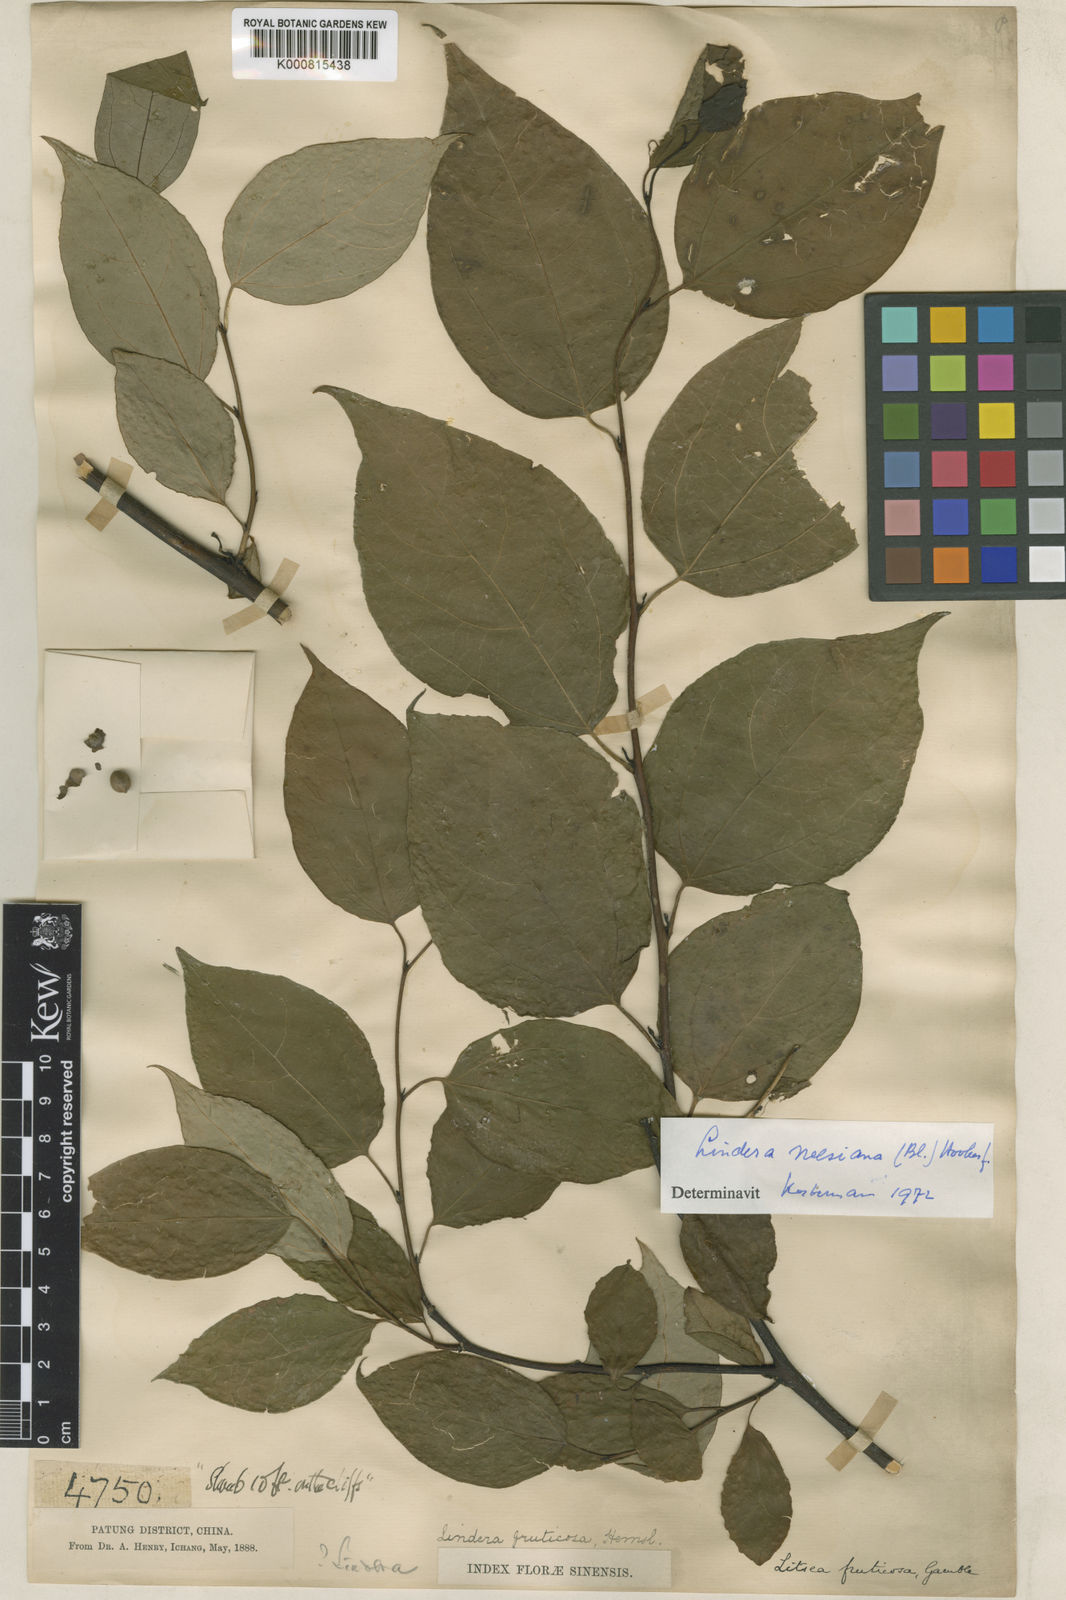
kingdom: Plantae
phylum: Tracheophyta
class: Magnoliopsida
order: Laurales
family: Lauraceae
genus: Lindera
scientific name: Lindera
